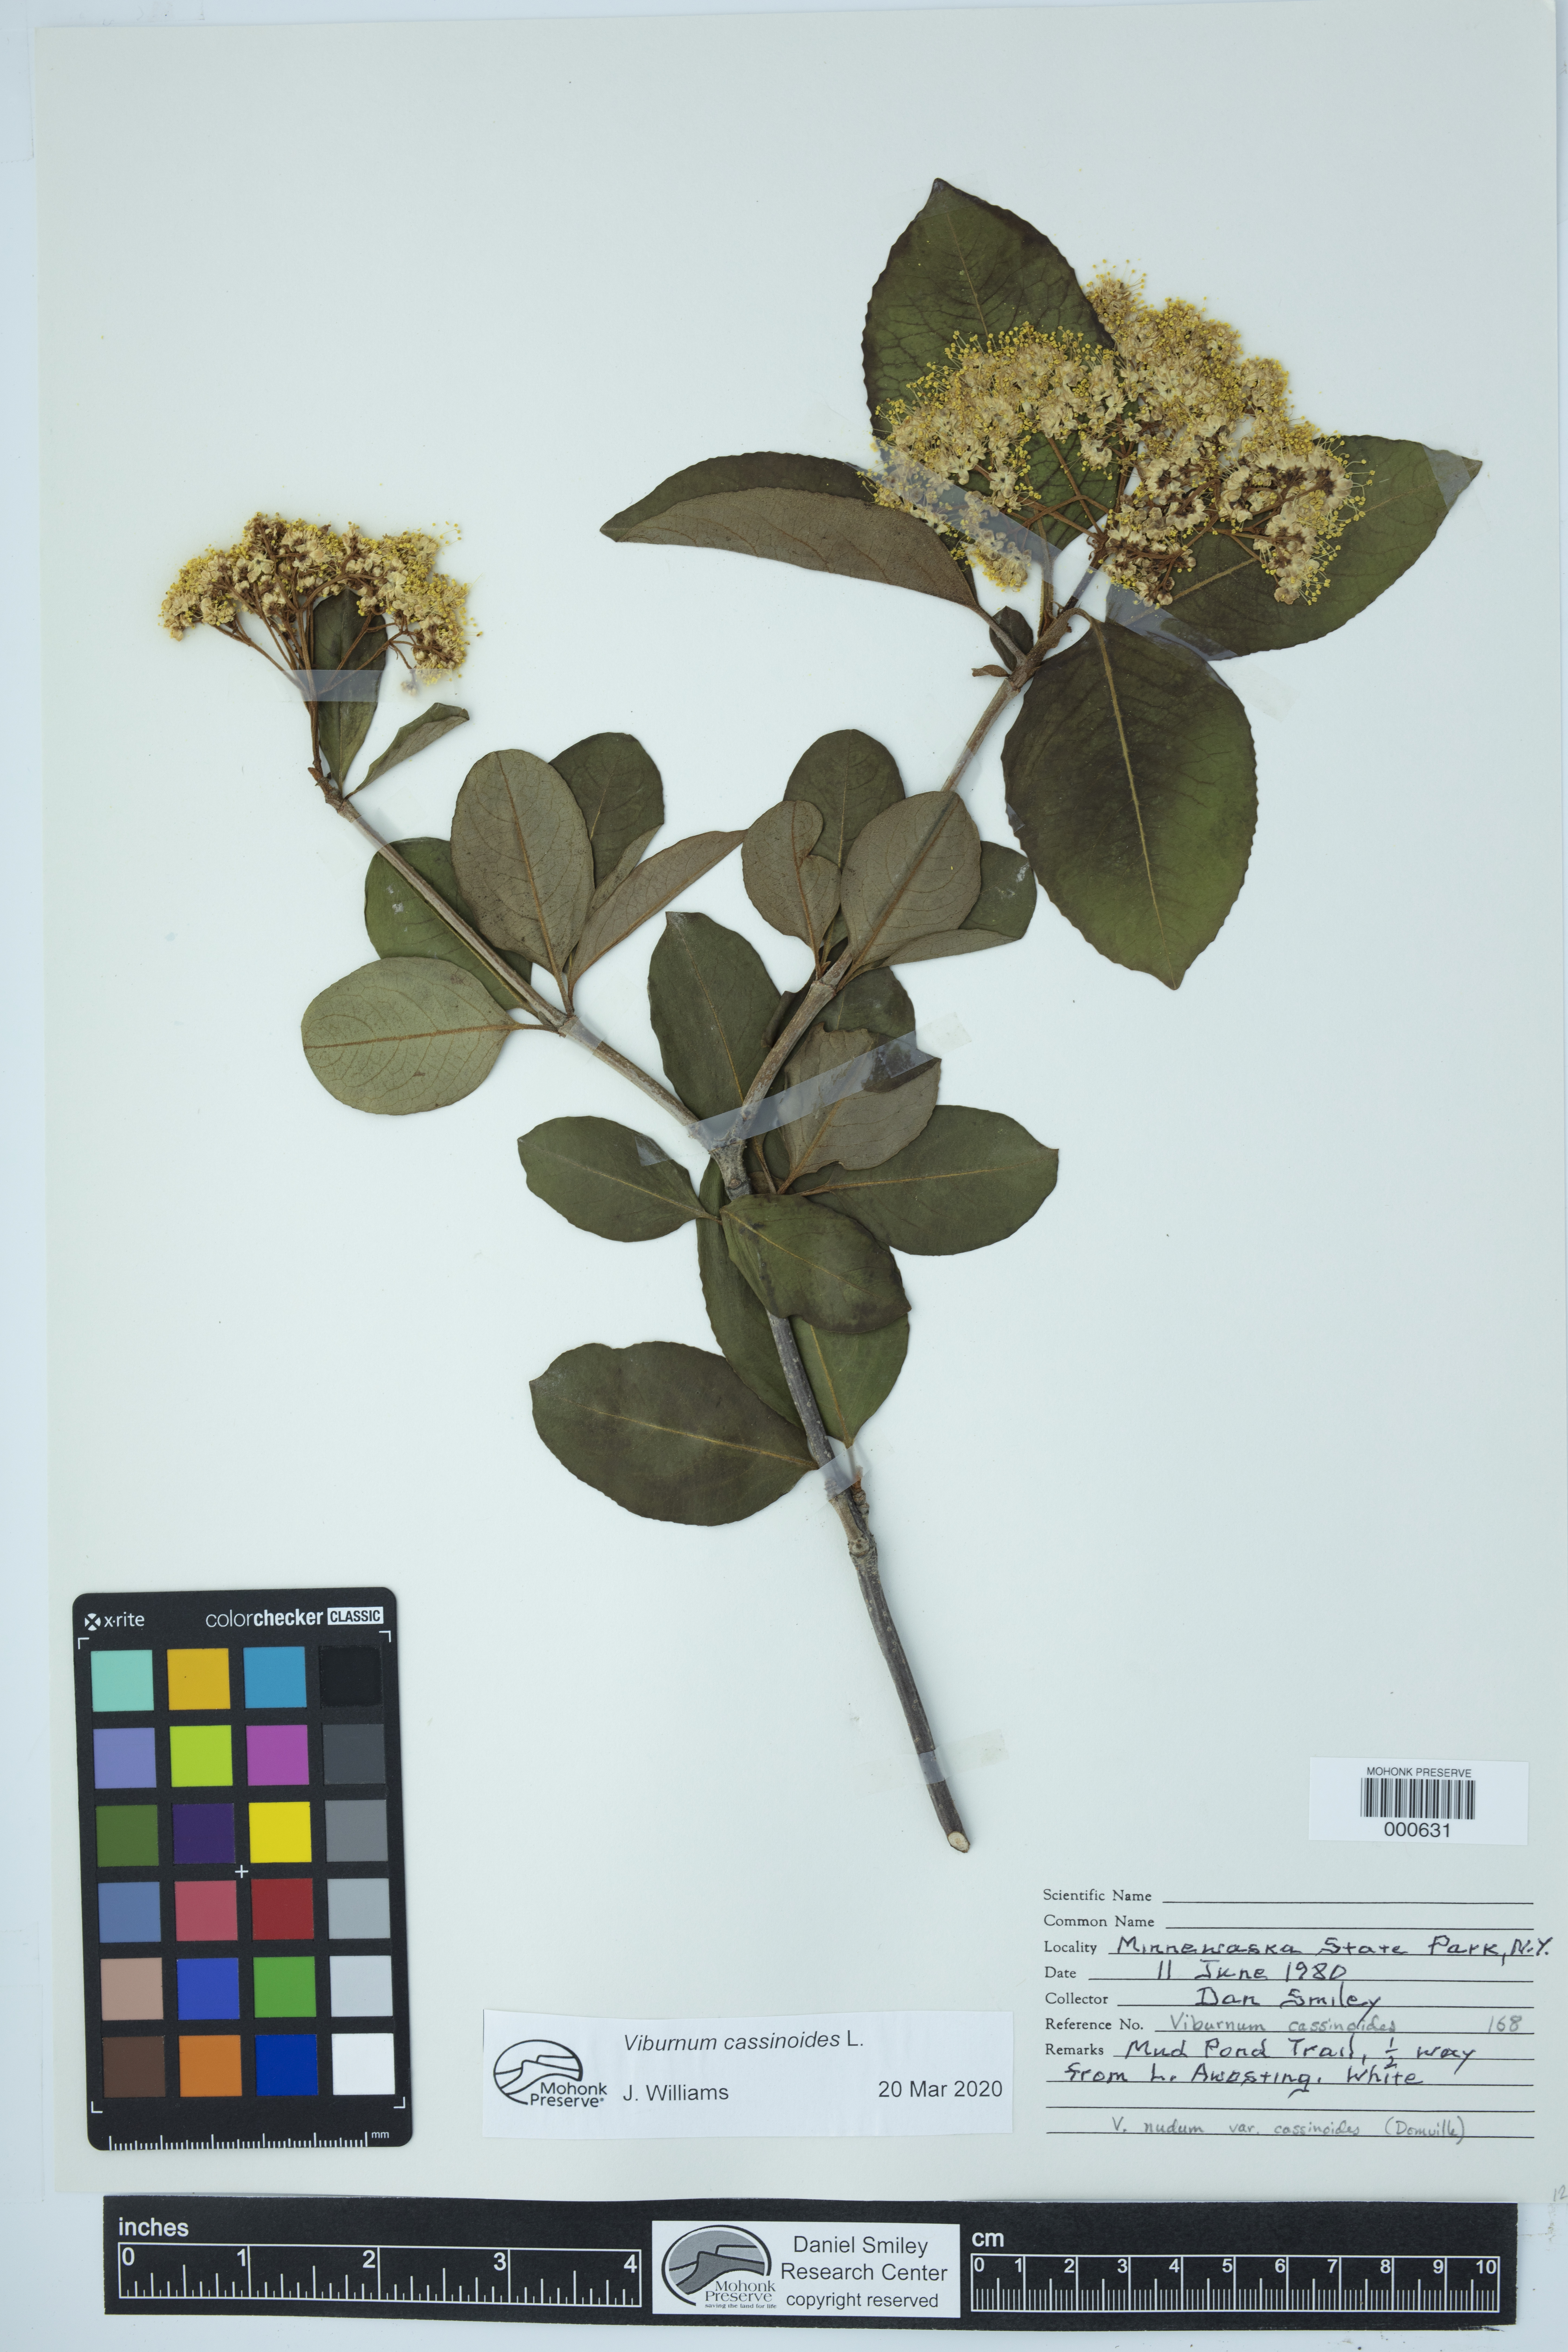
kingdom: Plantae
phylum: Tracheophyta
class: Magnoliopsida
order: Dipsacales
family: Viburnaceae
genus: Viburnum
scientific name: Viburnum nudum
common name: Possum haw
